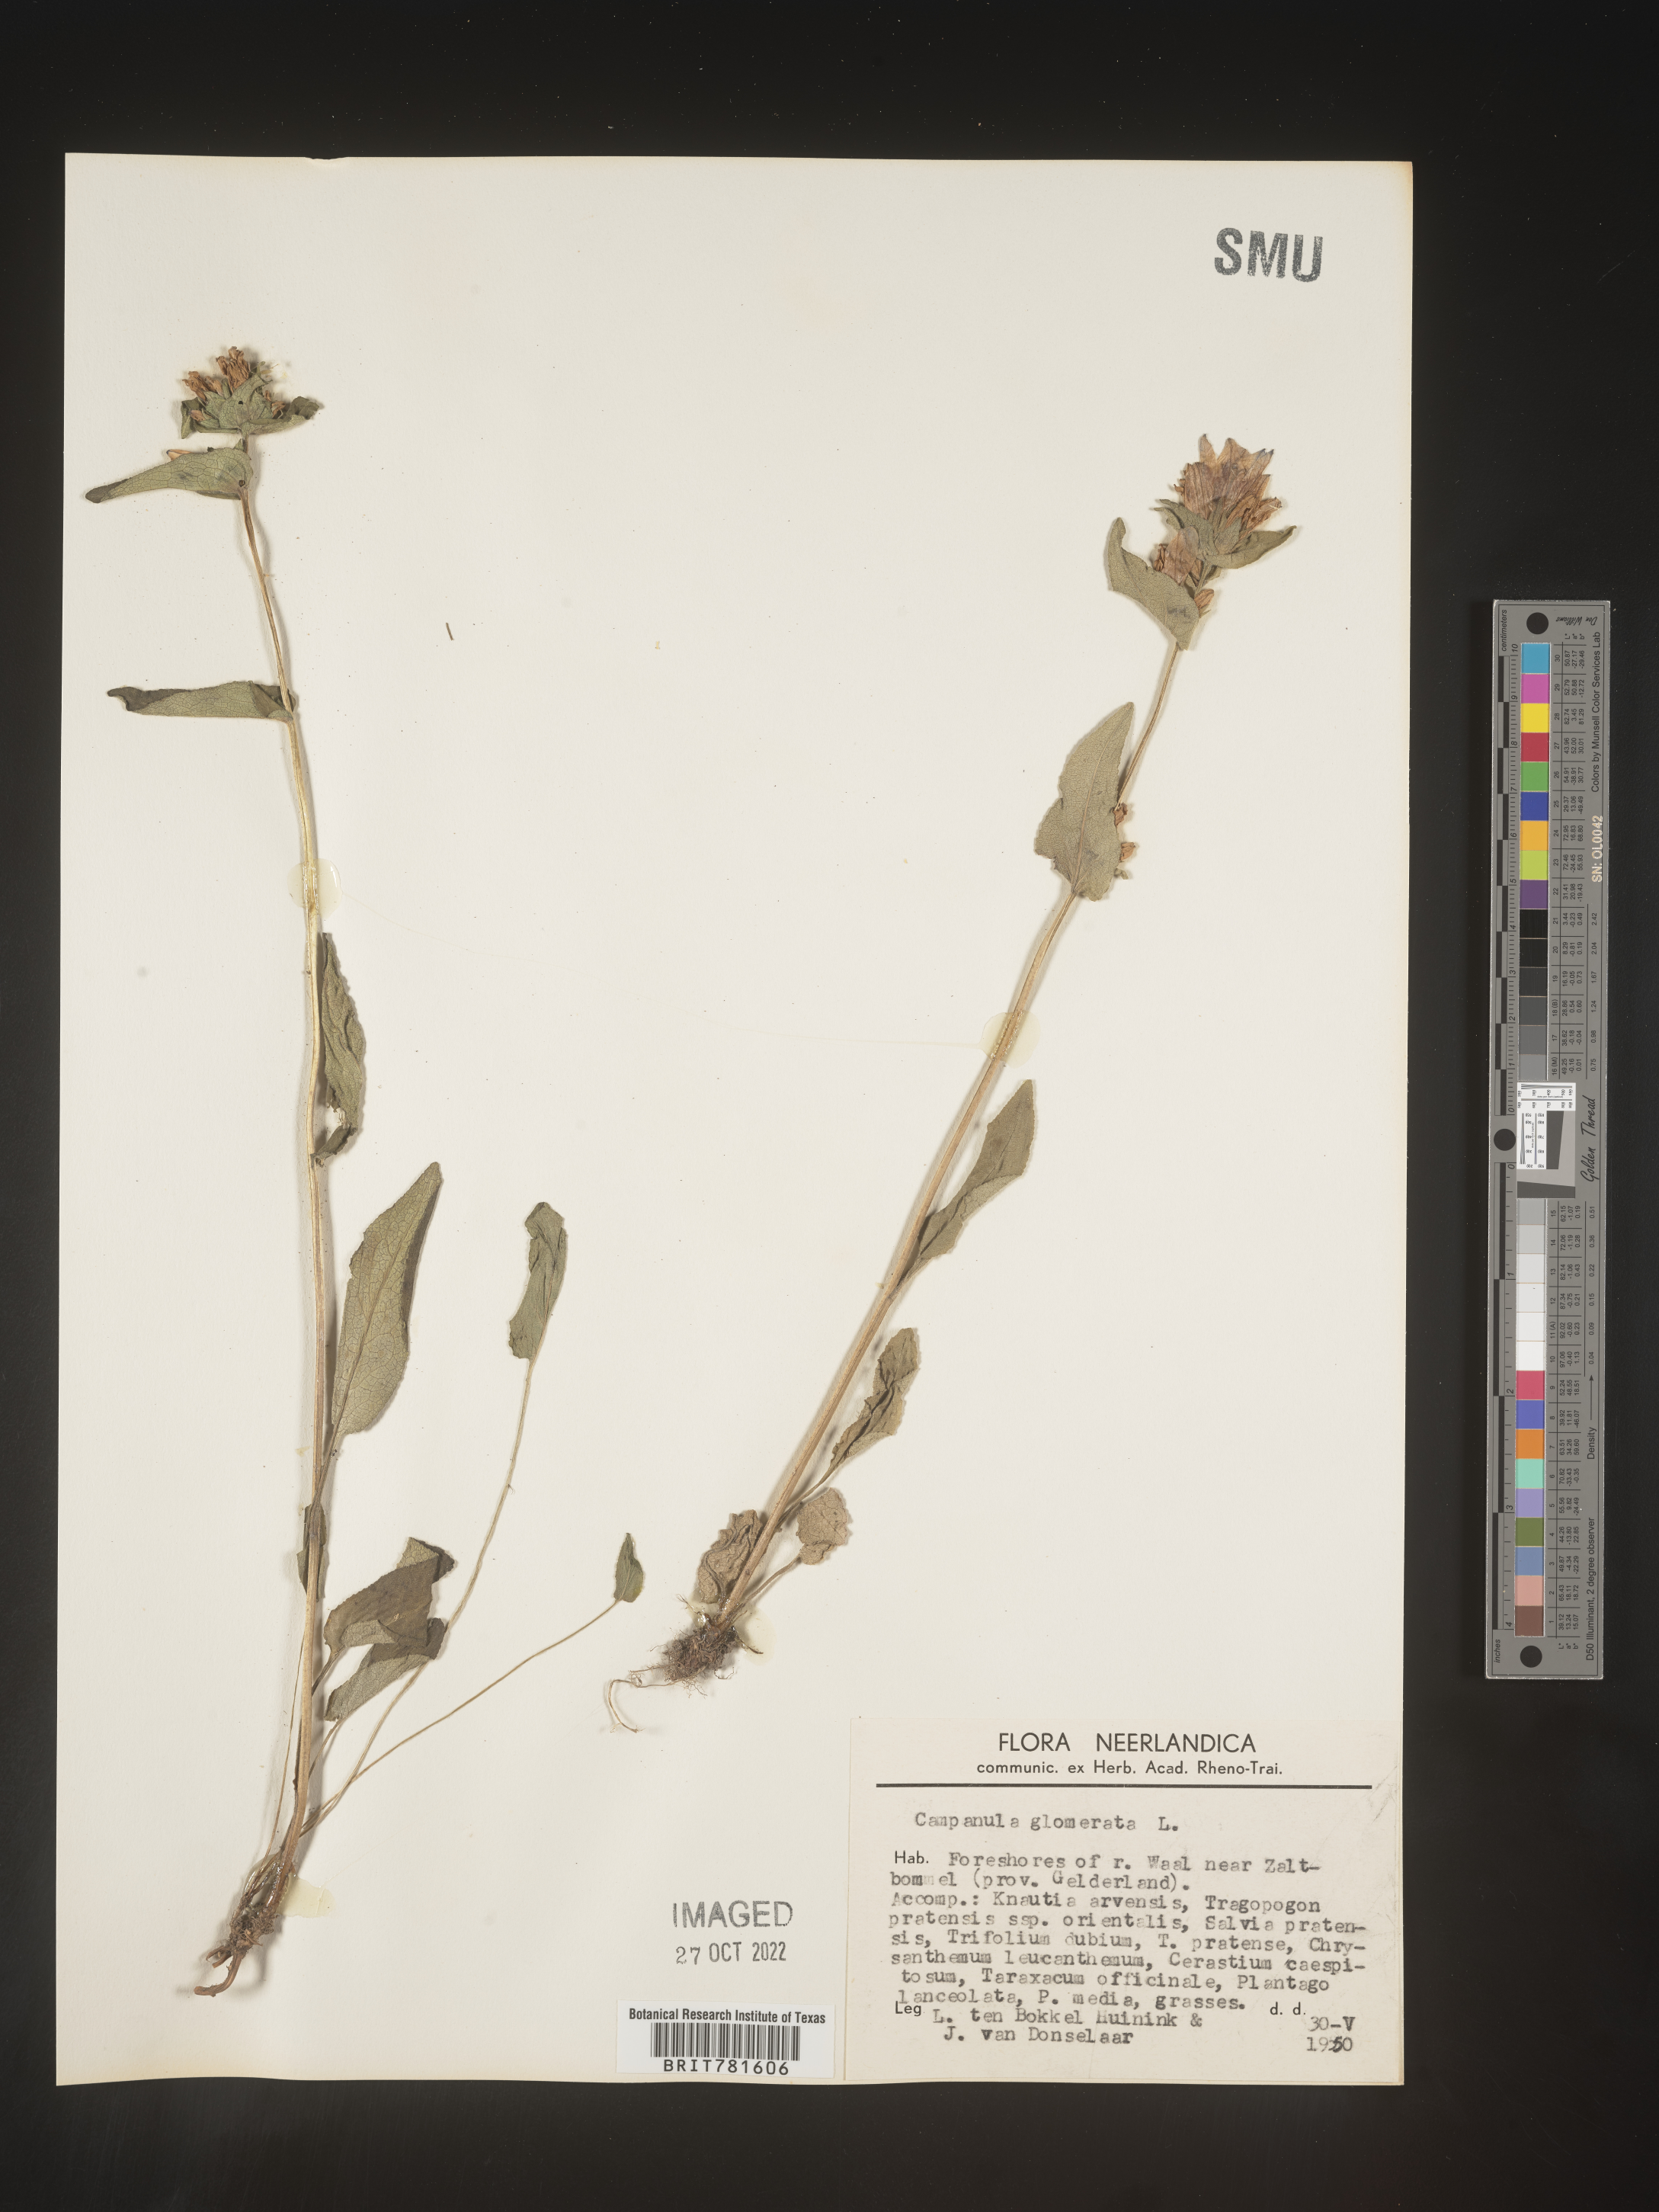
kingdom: Plantae
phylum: Tracheophyta
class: Magnoliopsida
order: Asterales
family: Campanulaceae
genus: Campanula
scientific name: Campanula
